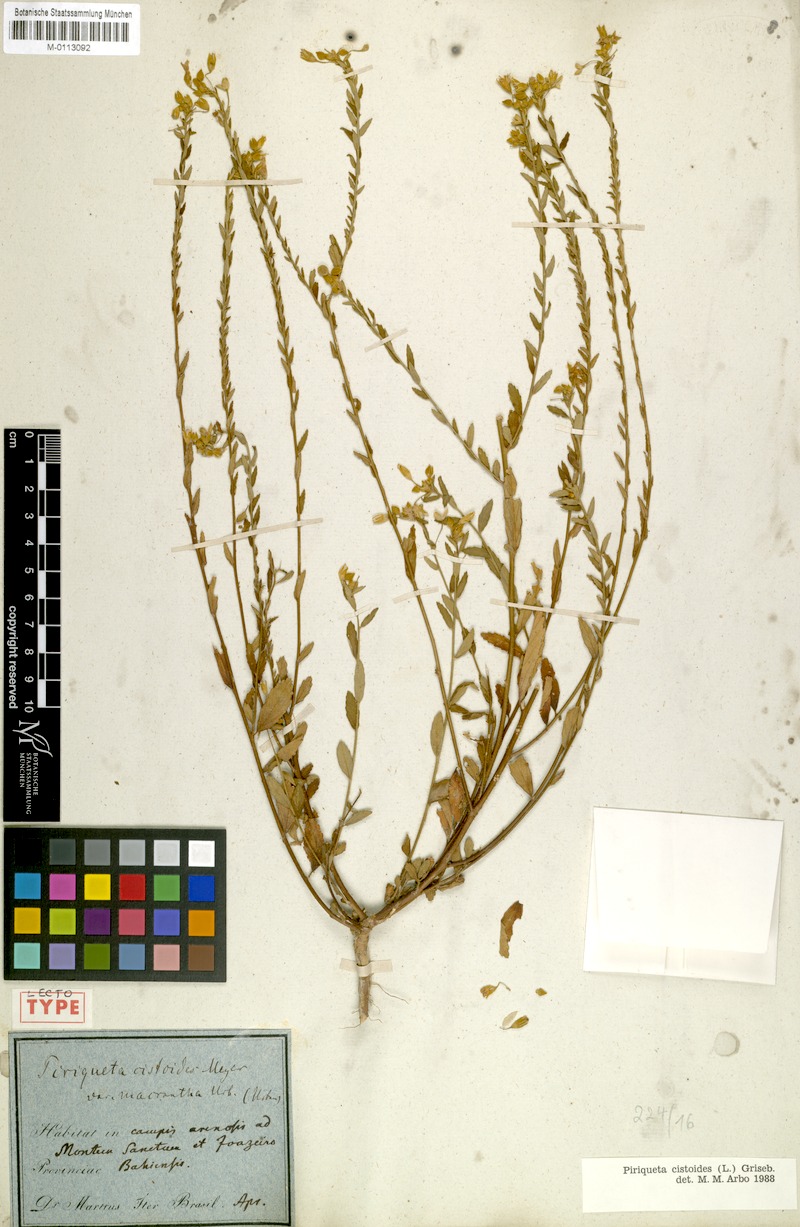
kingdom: Plantae
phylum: Tracheophyta
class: Magnoliopsida
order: Malpighiales
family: Turneraceae
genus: Piriqueta
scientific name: Piriqueta cistoides
